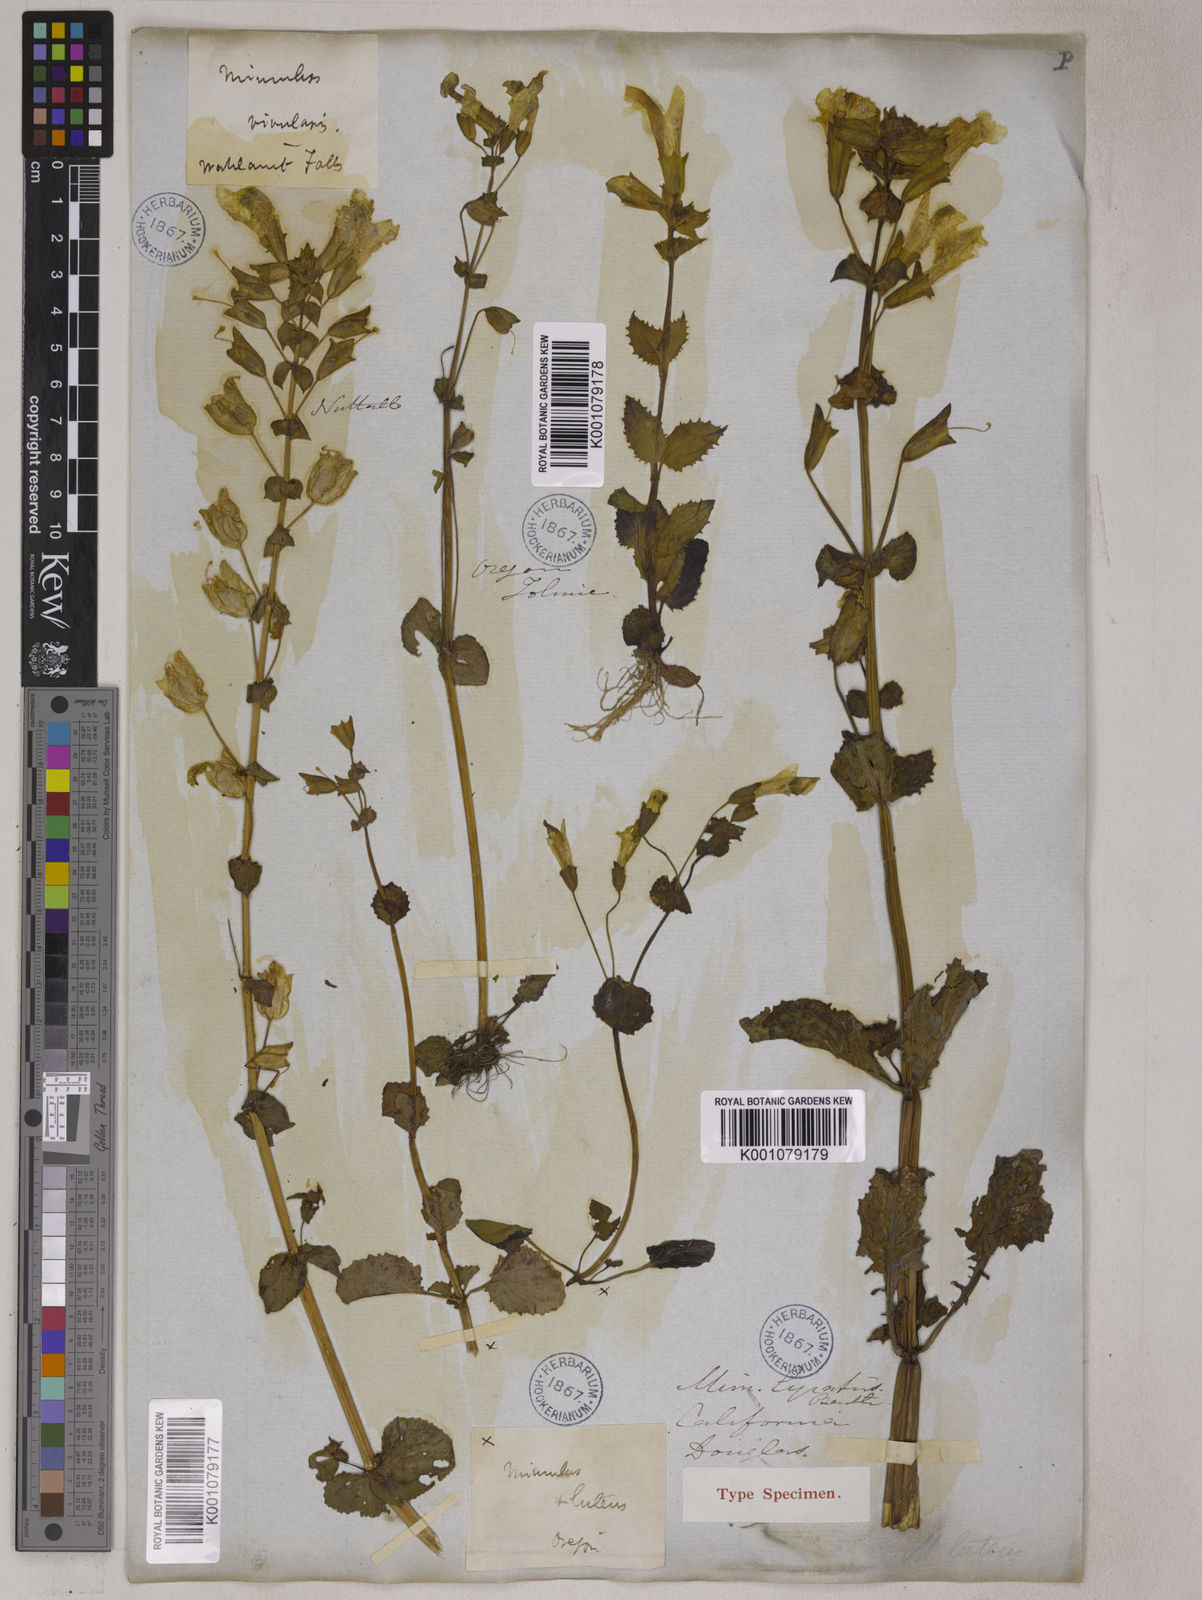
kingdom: Plantae
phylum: Tracheophyta
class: Magnoliopsida
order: Lamiales
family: Phrymaceae
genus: Erythranthe
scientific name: Erythranthe guttata
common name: Monkeyflower
